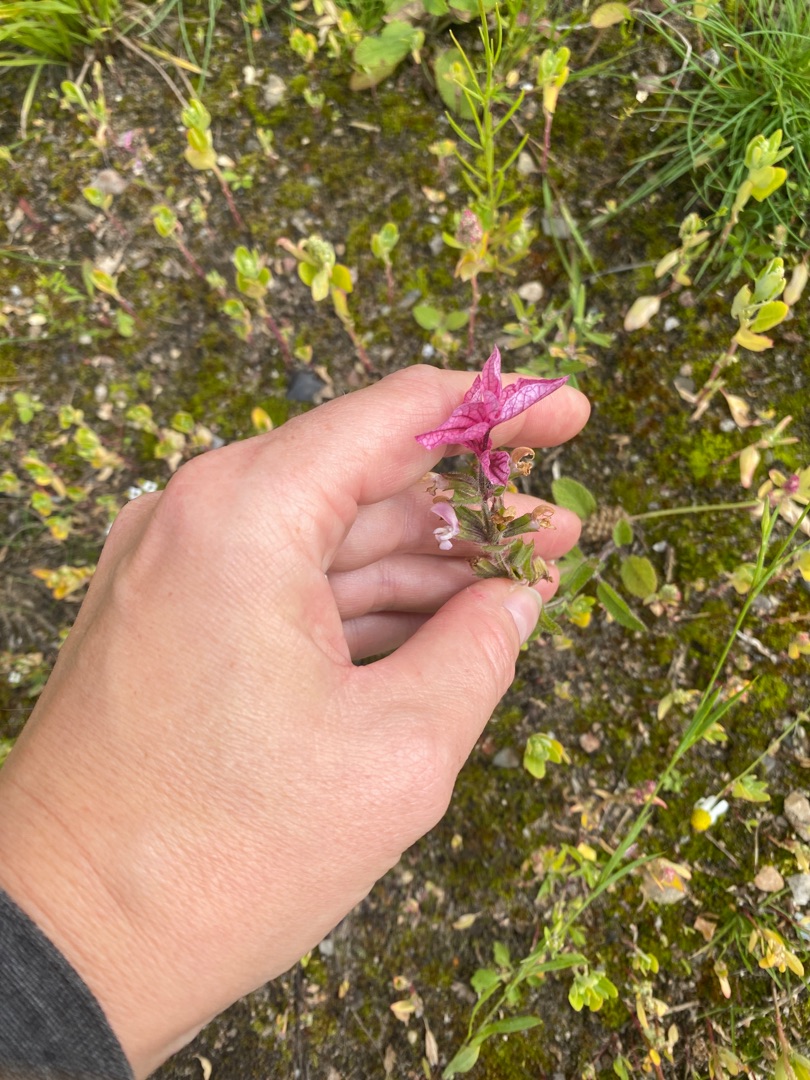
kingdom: Plantae
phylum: Tracheophyta
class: Magnoliopsida
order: Lamiales
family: Lamiaceae
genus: Salvia
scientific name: Salvia viridis
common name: Dusk-salvie
